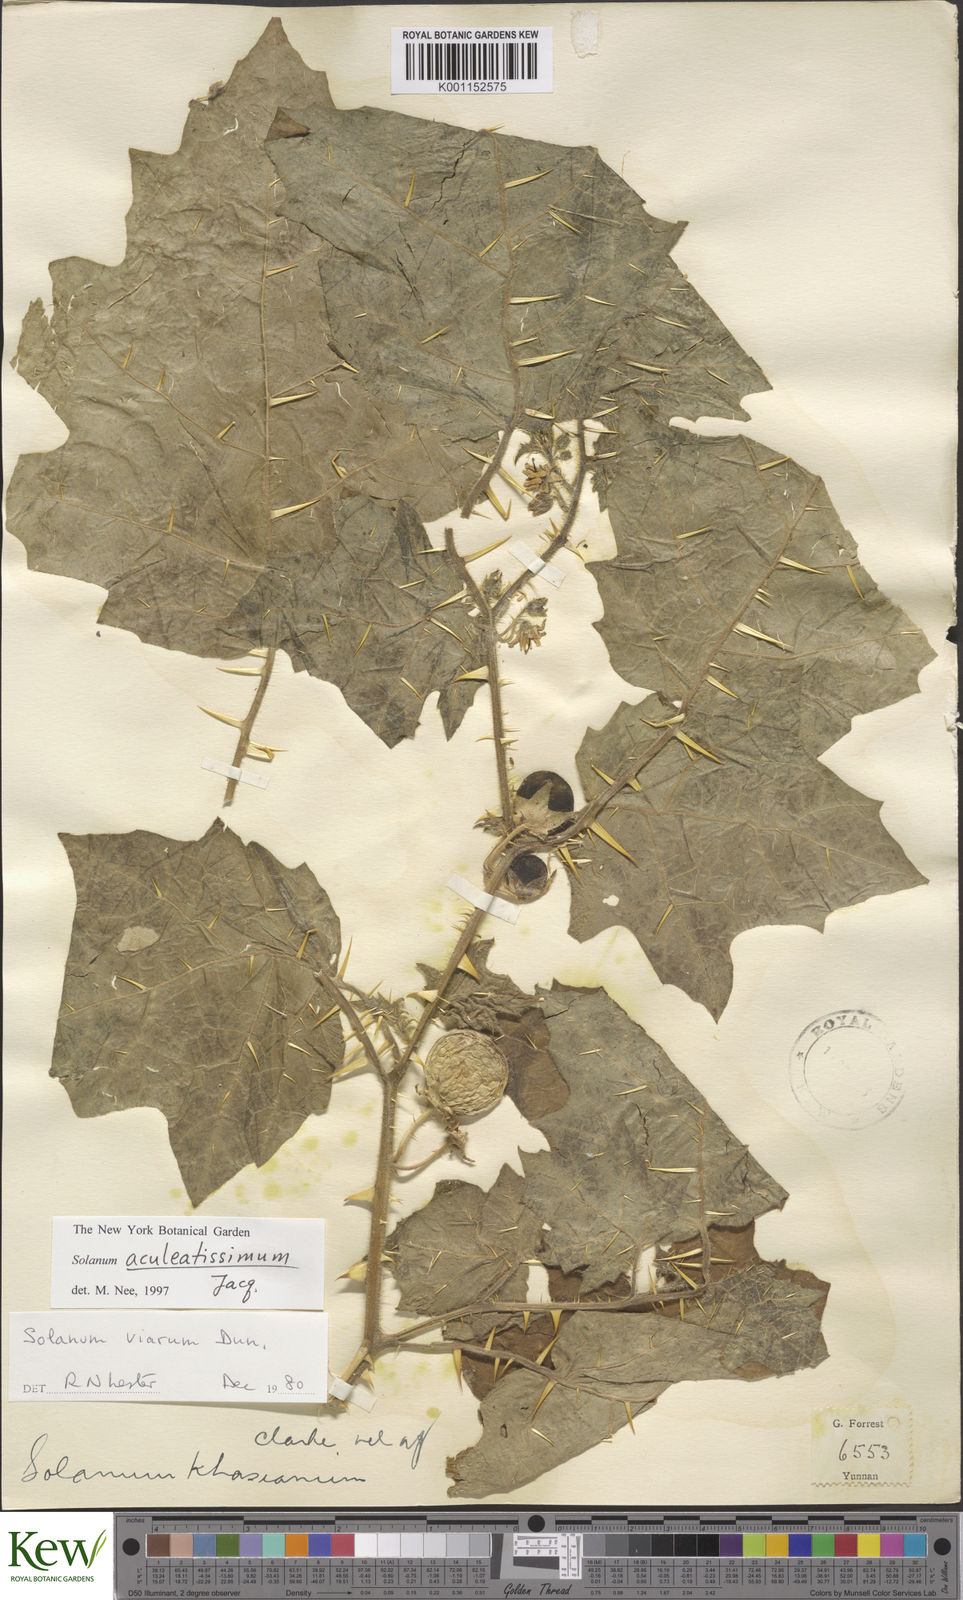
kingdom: Plantae
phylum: Tracheophyta
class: Magnoliopsida
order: Solanales
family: Solanaceae
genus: Solanum
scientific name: Solanum aculeatissimum
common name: Dutch eggplant
